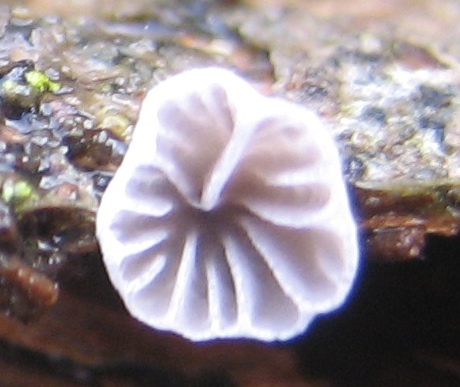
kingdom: Fungi
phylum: Basidiomycota
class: Agaricomycetes
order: Agaricales
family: Pleurotaceae
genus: Resupinatus
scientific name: Resupinatus applicatus
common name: lysfiltet barkhat
